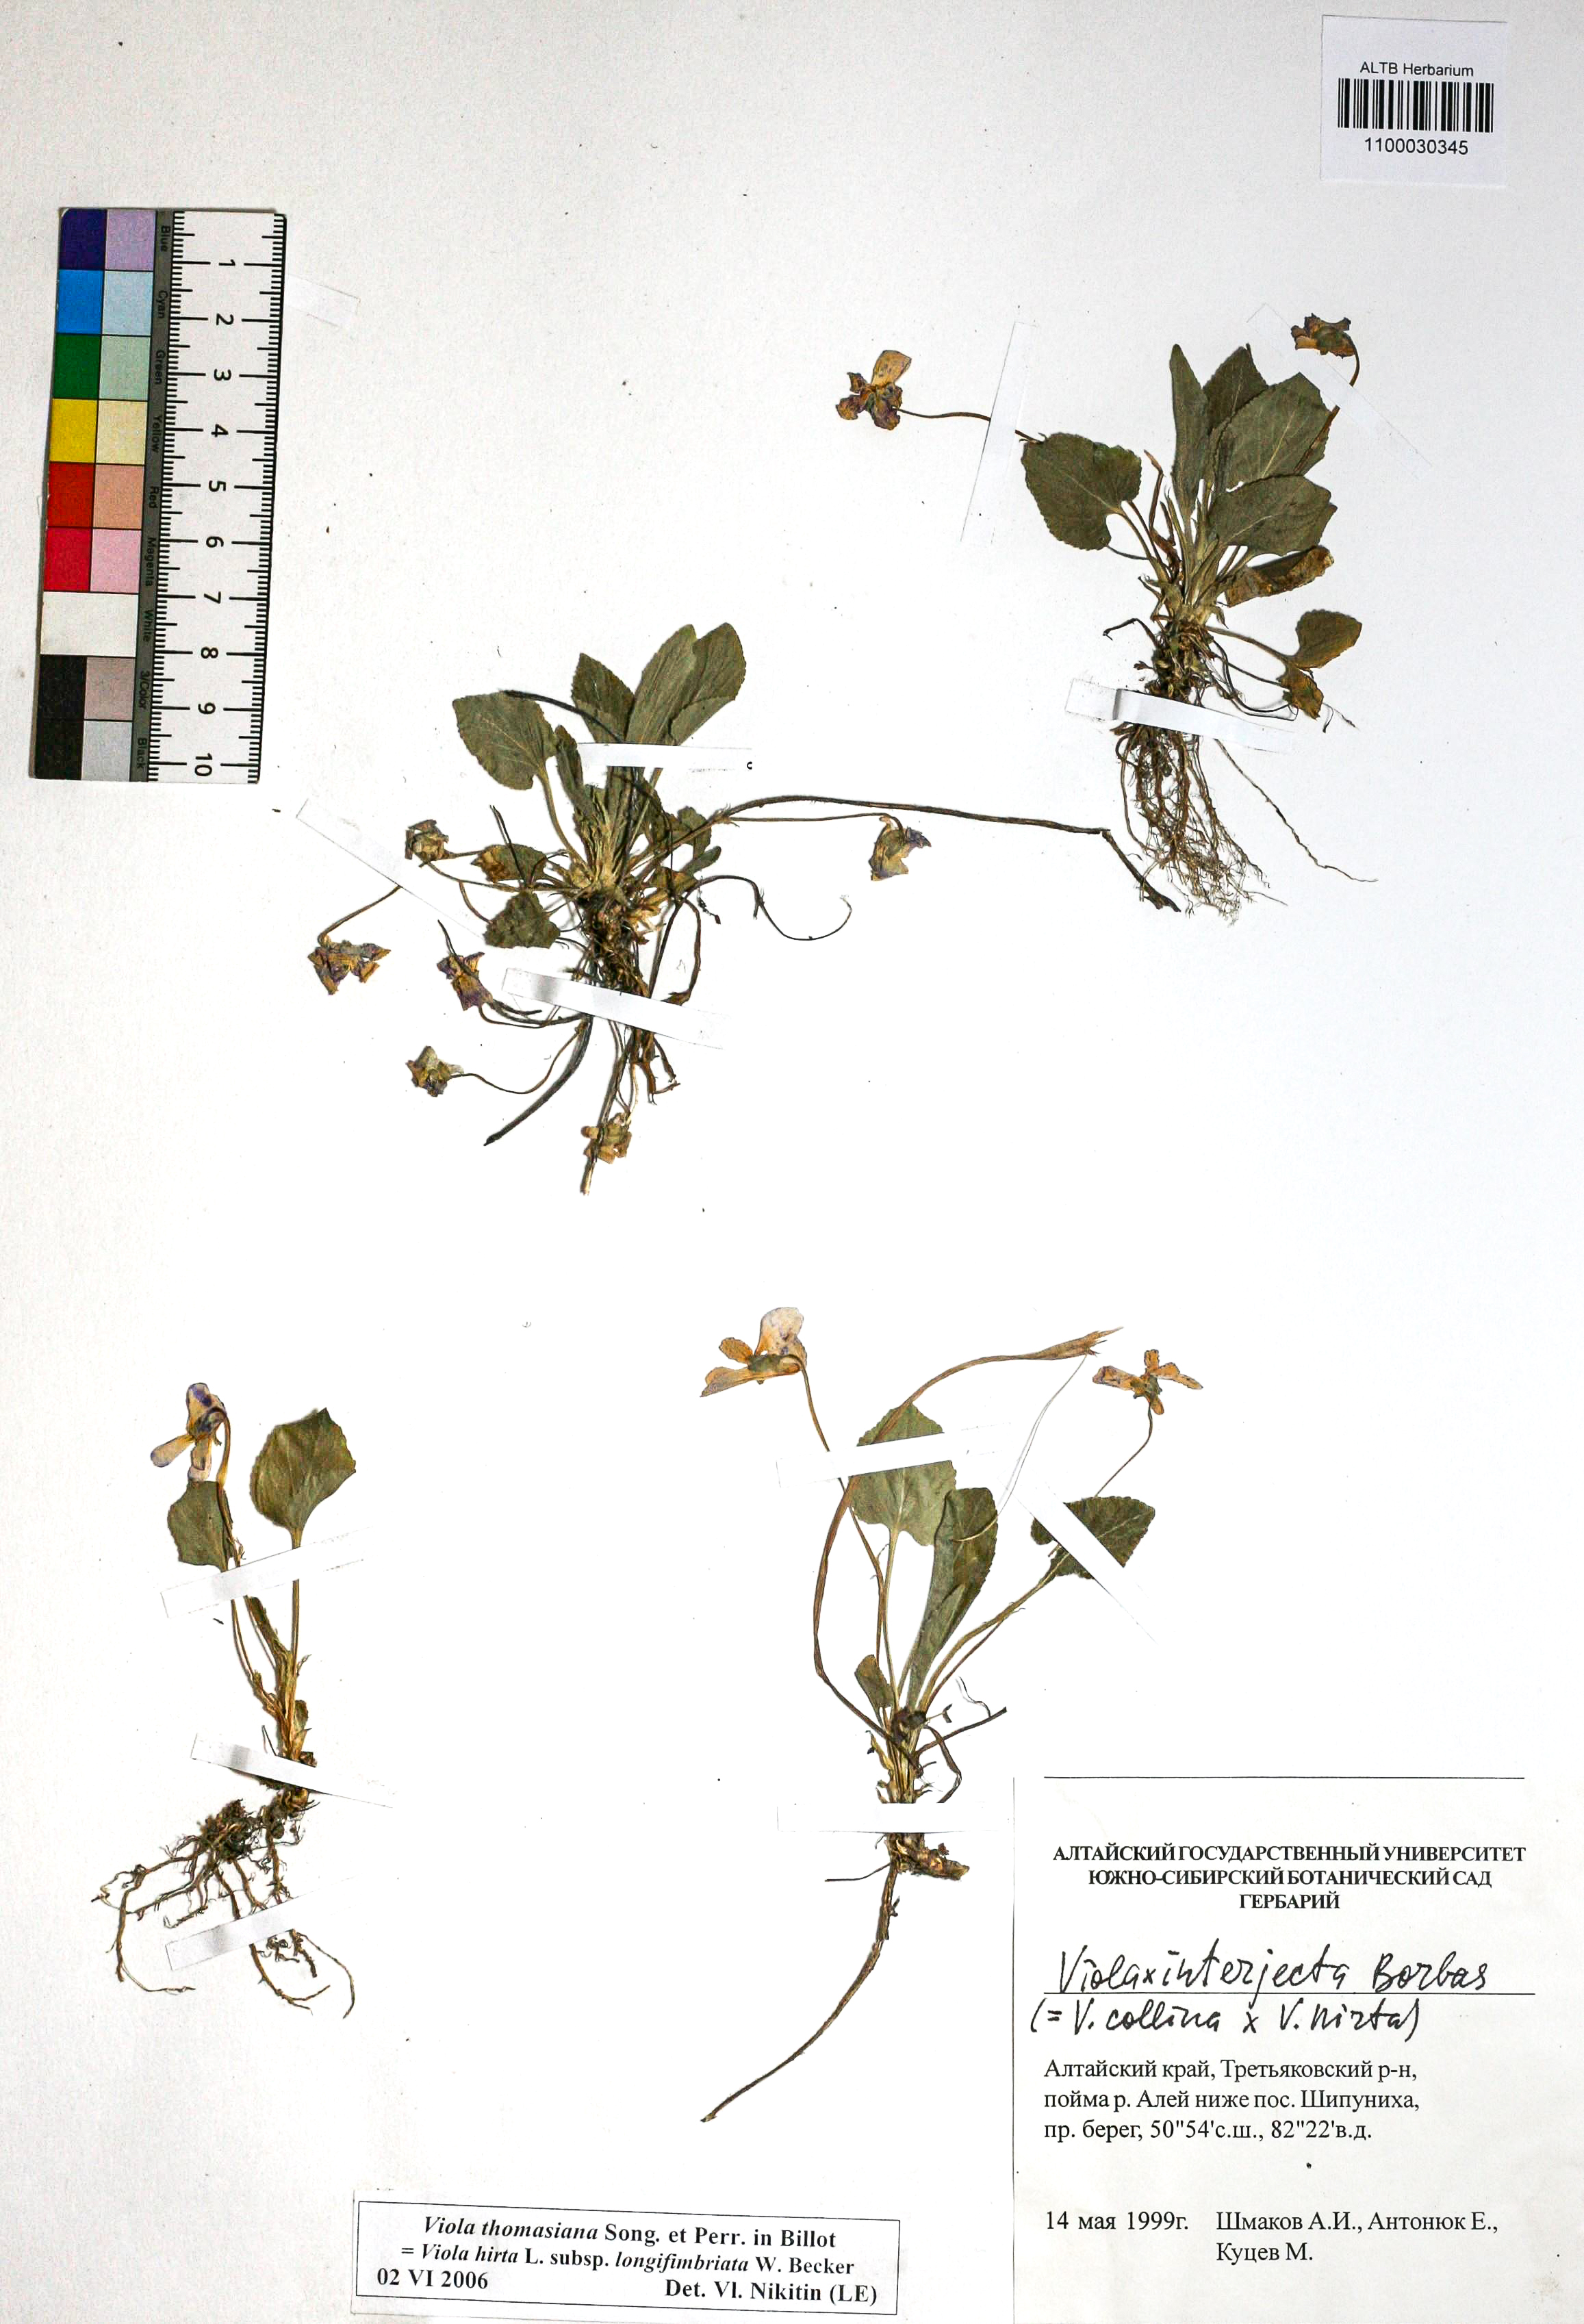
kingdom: Plantae
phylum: Tracheophyta
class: Magnoliopsida
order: Malpighiales
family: Violaceae
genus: Viola
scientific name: Viola thomasiana
